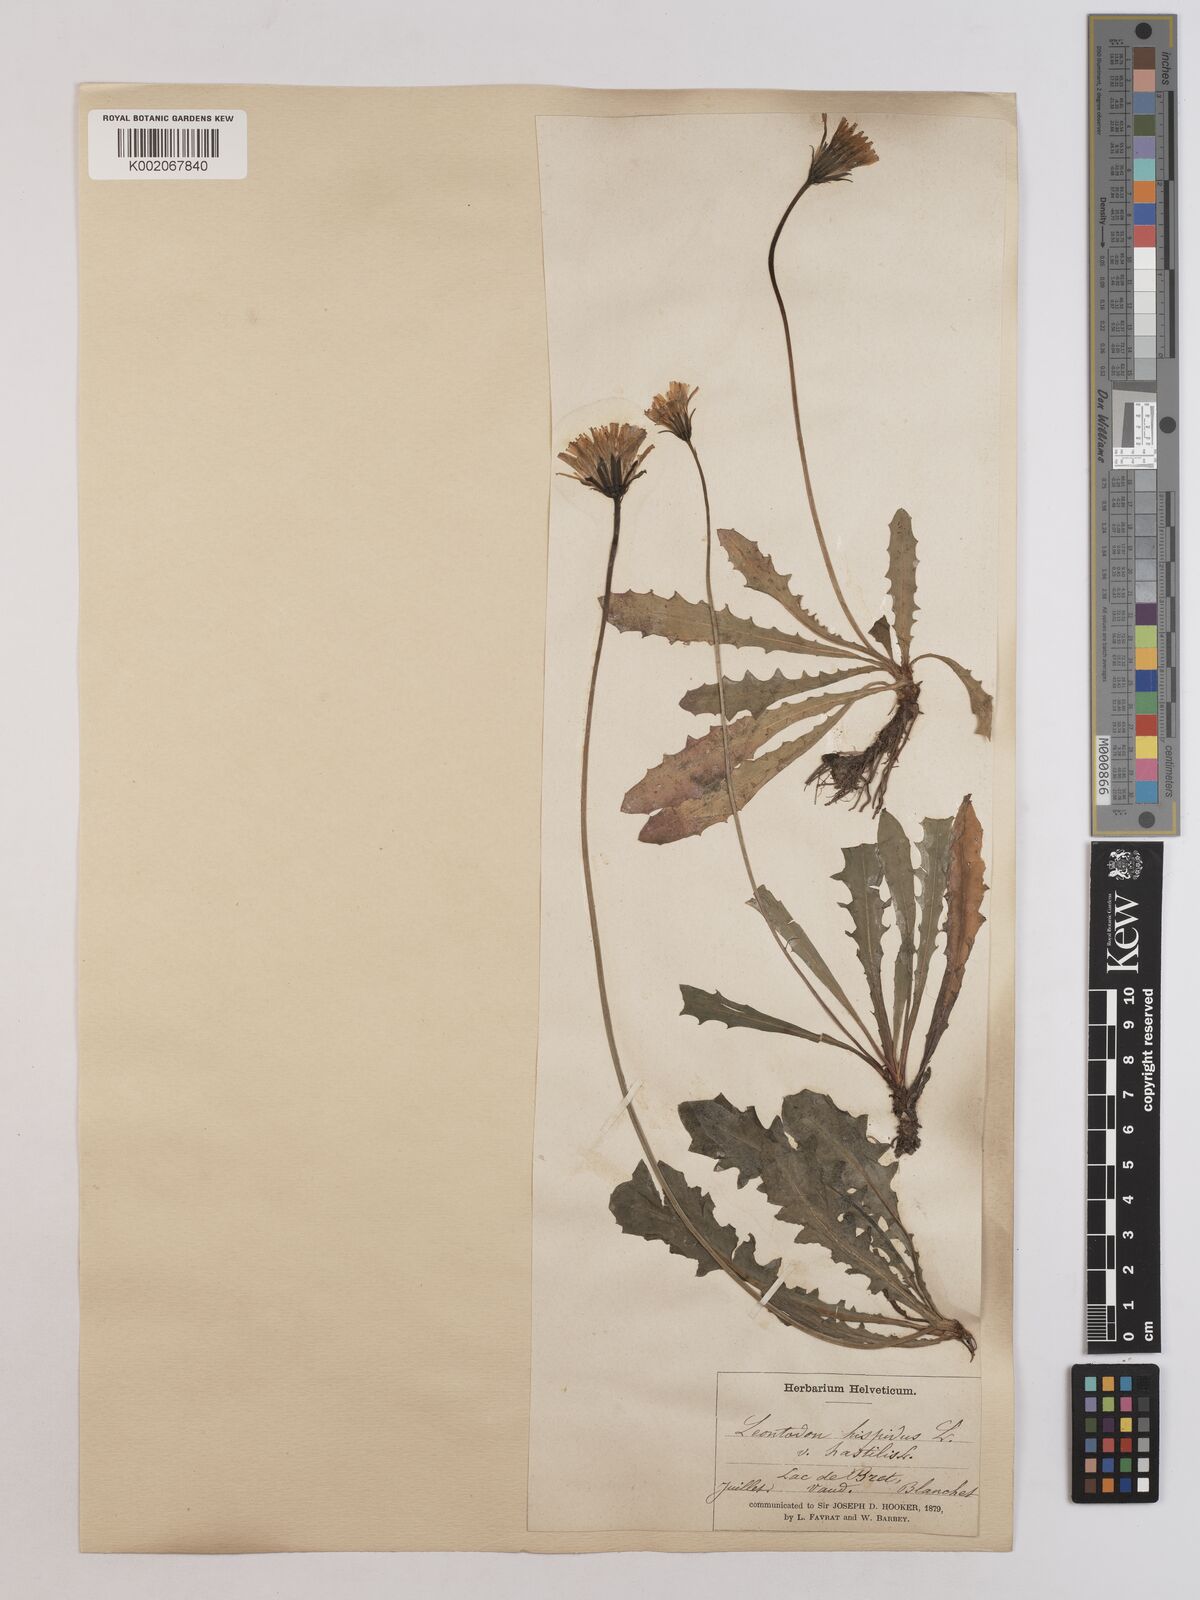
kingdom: Plantae
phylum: Tracheophyta
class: Magnoliopsida
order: Asterales
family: Asteraceae
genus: Leontodon
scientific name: Leontodon
